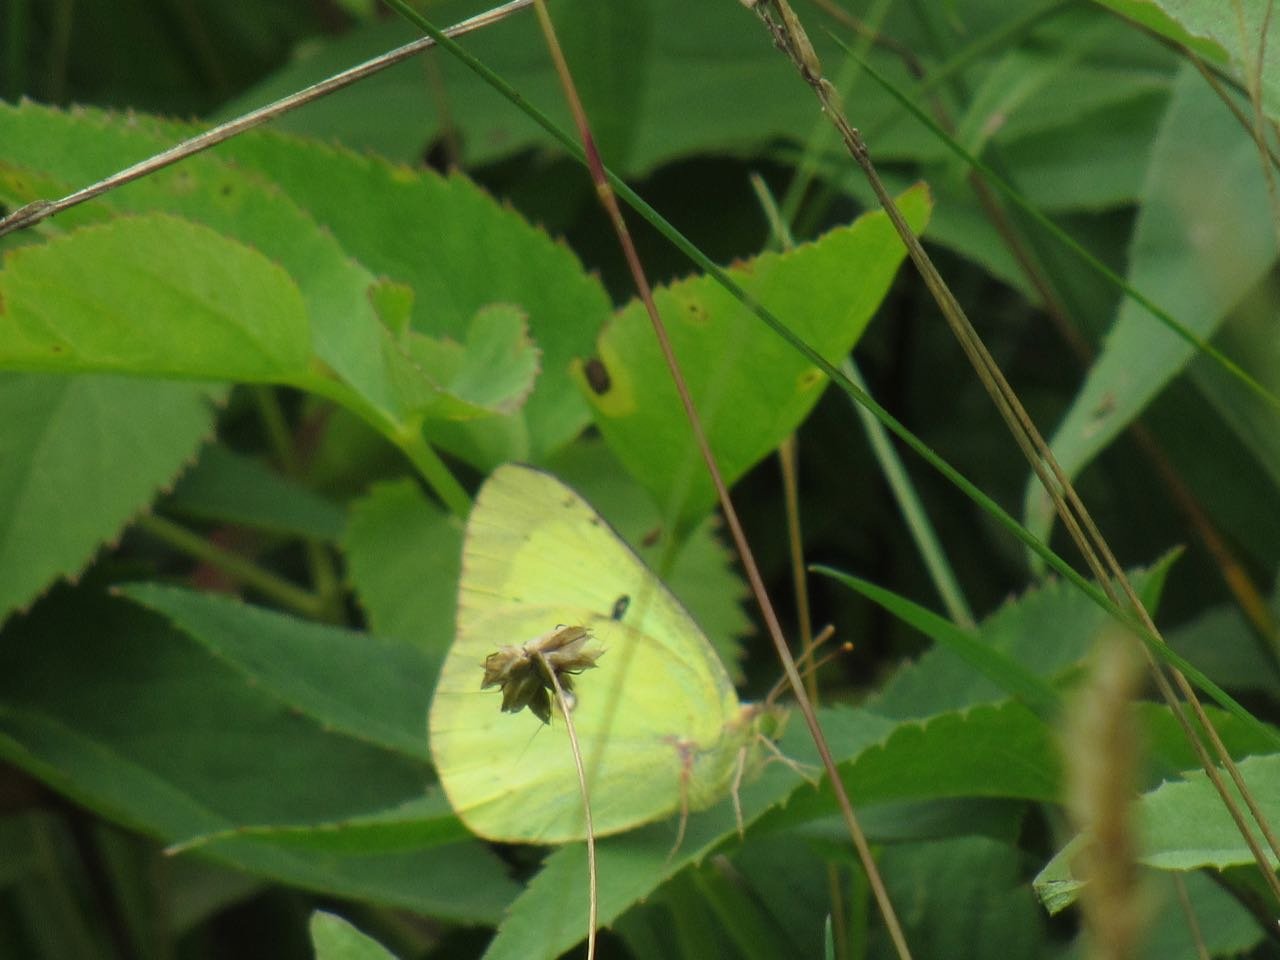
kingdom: Animalia
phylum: Arthropoda
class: Insecta
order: Lepidoptera
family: Pieridae
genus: Colias
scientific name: Colias philodice
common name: Clouded Sulphur
